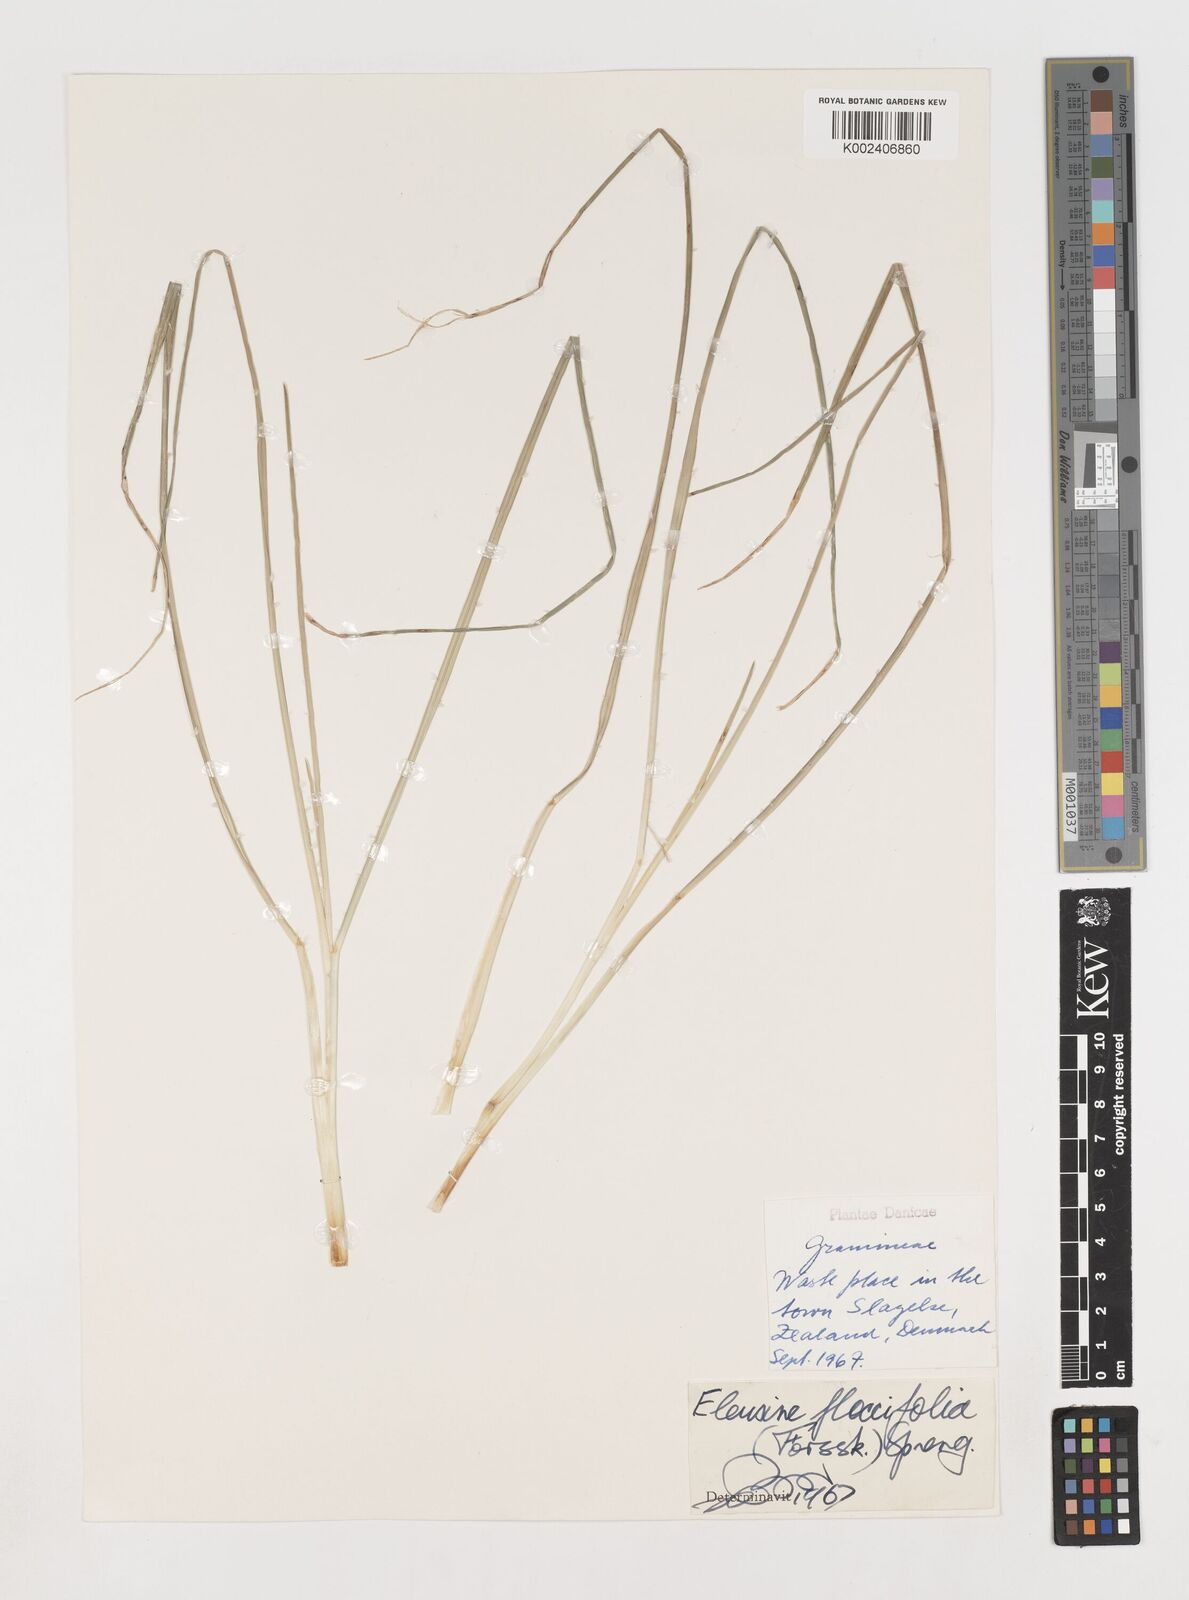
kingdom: Plantae
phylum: Tracheophyta
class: Liliopsida
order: Poales
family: Poaceae
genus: Eleusine
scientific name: Eleusine floccifolia
